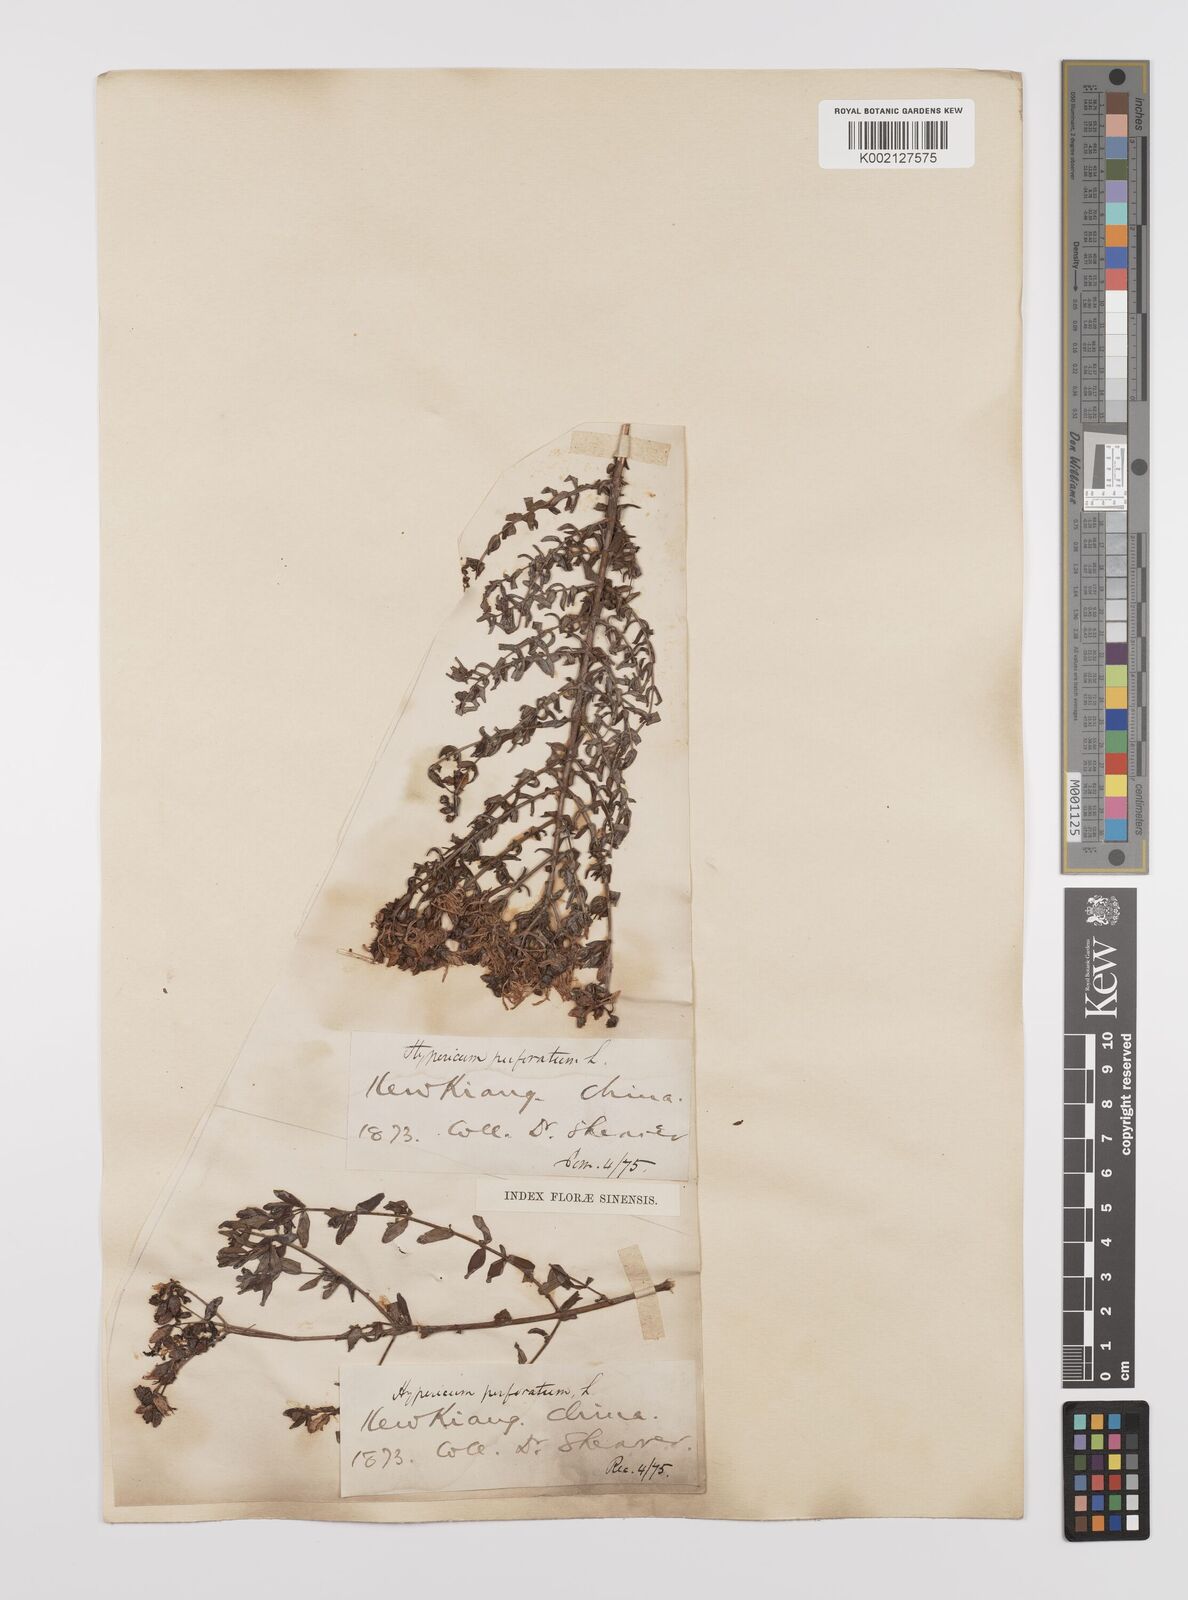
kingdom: Plantae
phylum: Tracheophyta
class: Magnoliopsida
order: Malpighiales
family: Hypericaceae
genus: Hypericum
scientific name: Hypericum perforatum
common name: Common st. johnswort
